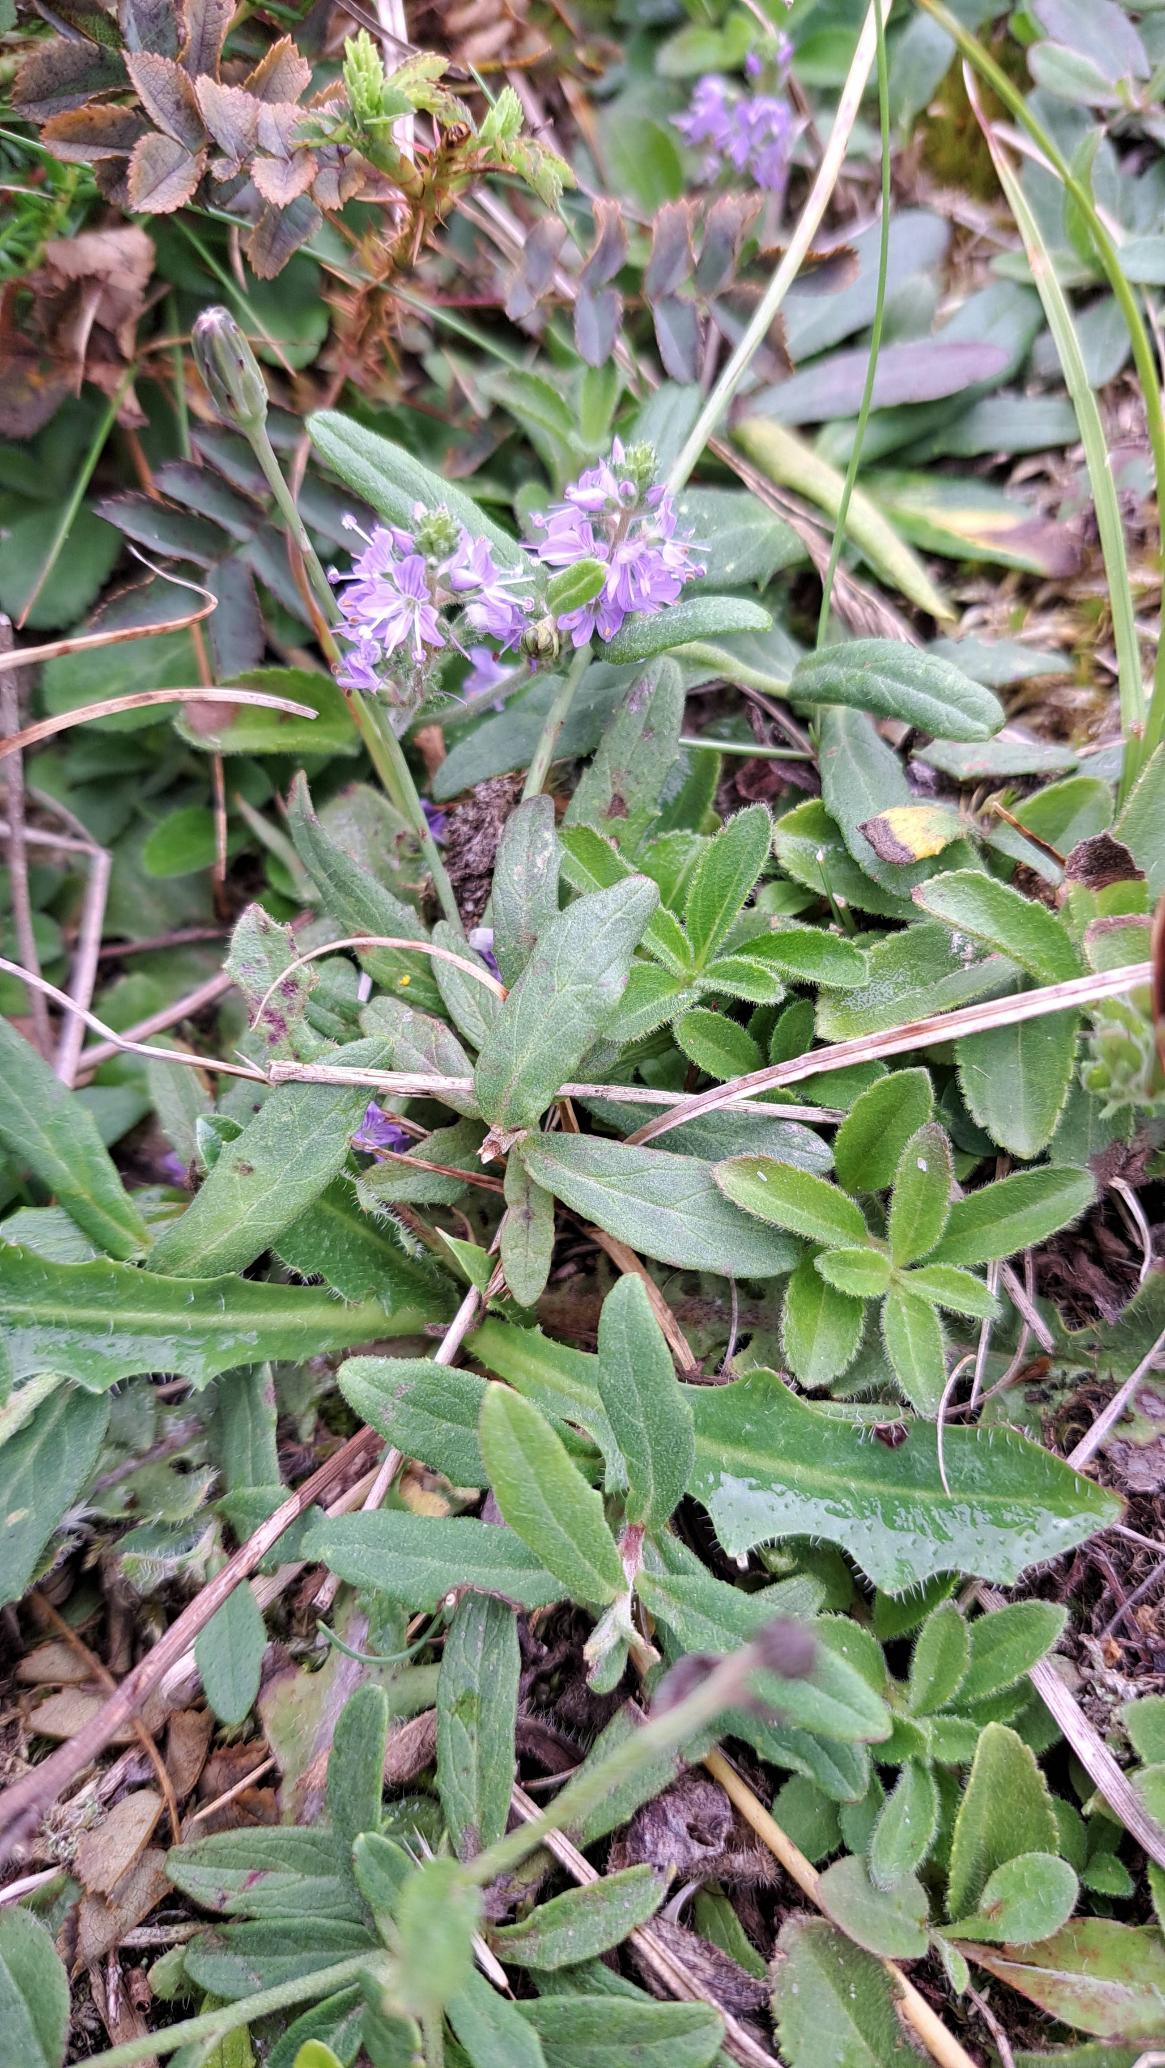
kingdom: Plantae
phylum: Tracheophyta
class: Magnoliopsida
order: Lamiales
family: Plantaginaceae
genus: Veronica
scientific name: Veronica officinalis
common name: Læge-ærenpris
